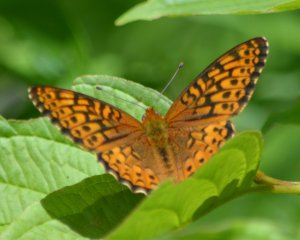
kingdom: Animalia
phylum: Arthropoda
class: Insecta
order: Lepidoptera
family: Nymphalidae
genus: Speyeria
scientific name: Speyeria atlantis
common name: Atlantis Fritillary
